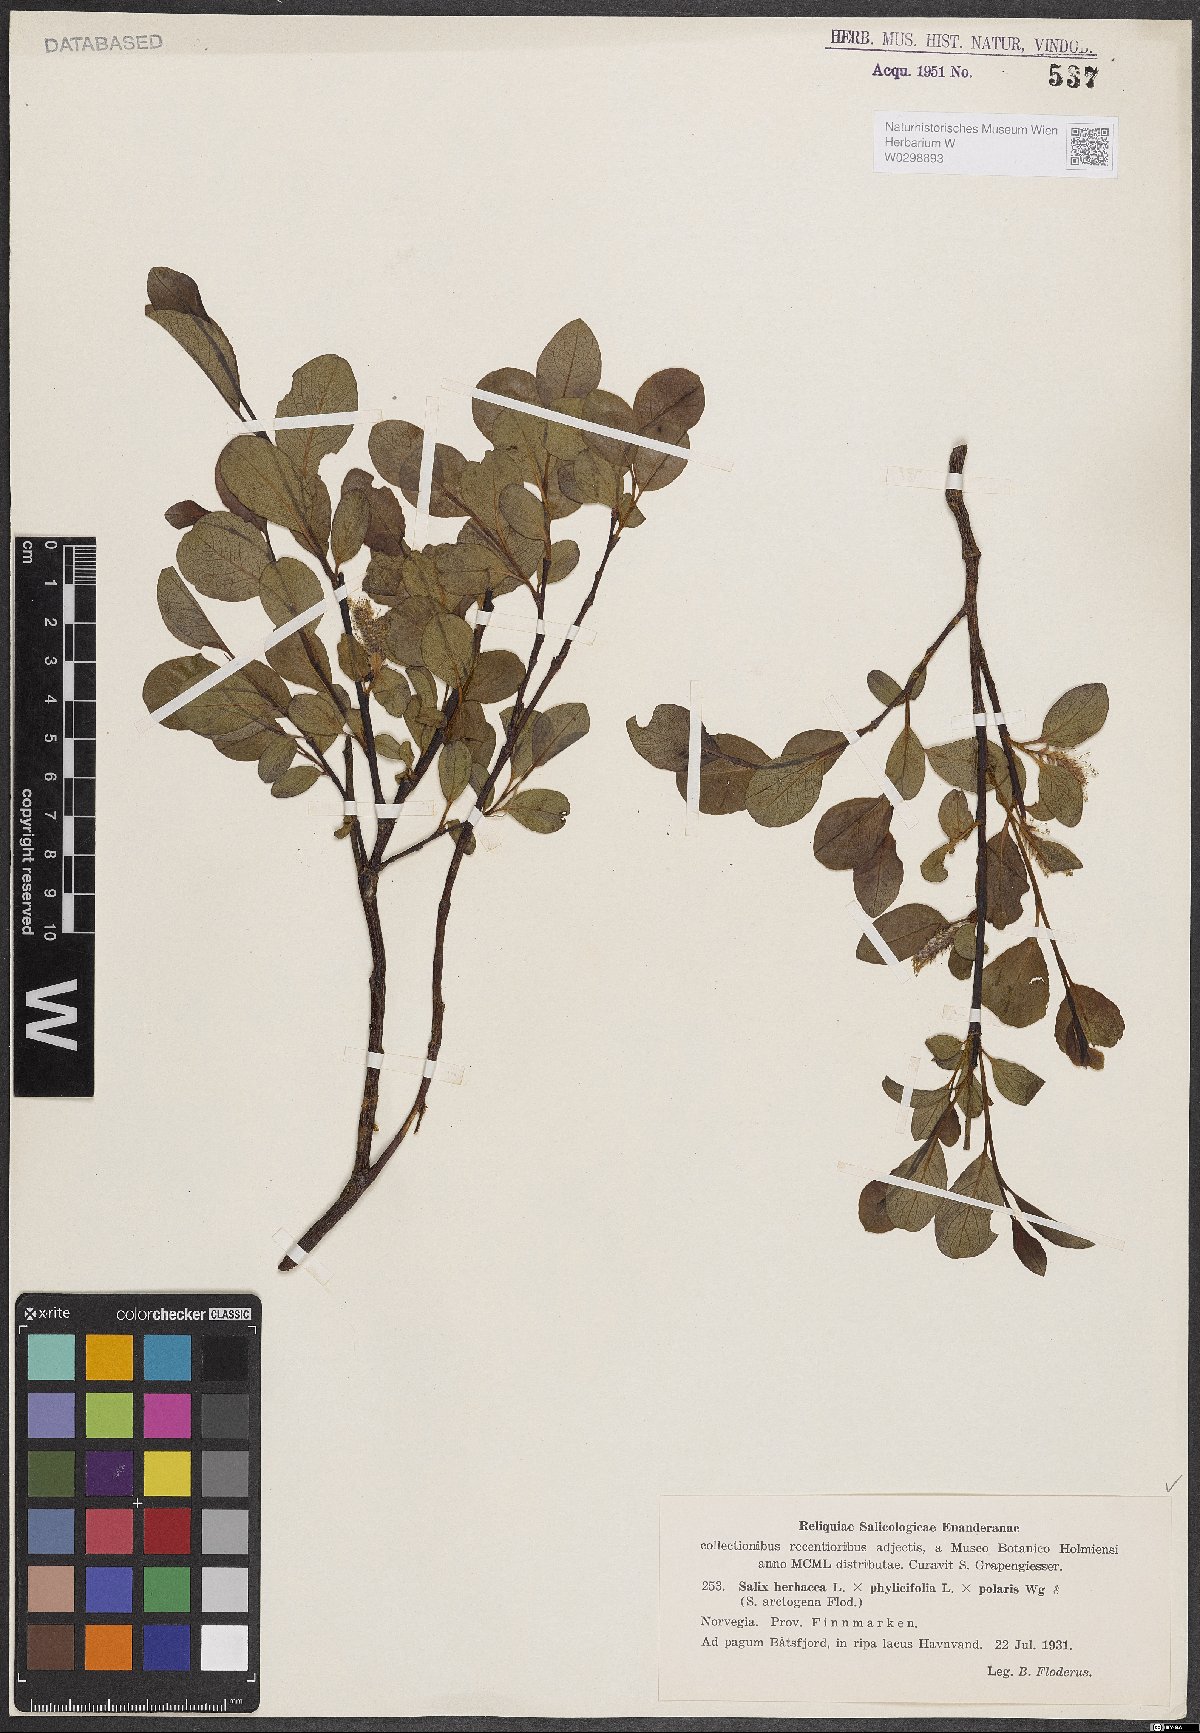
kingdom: Plantae
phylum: Tracheophyta
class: Magnoliopsida
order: Malpighiales
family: Salicaceae
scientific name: Salicaceae
